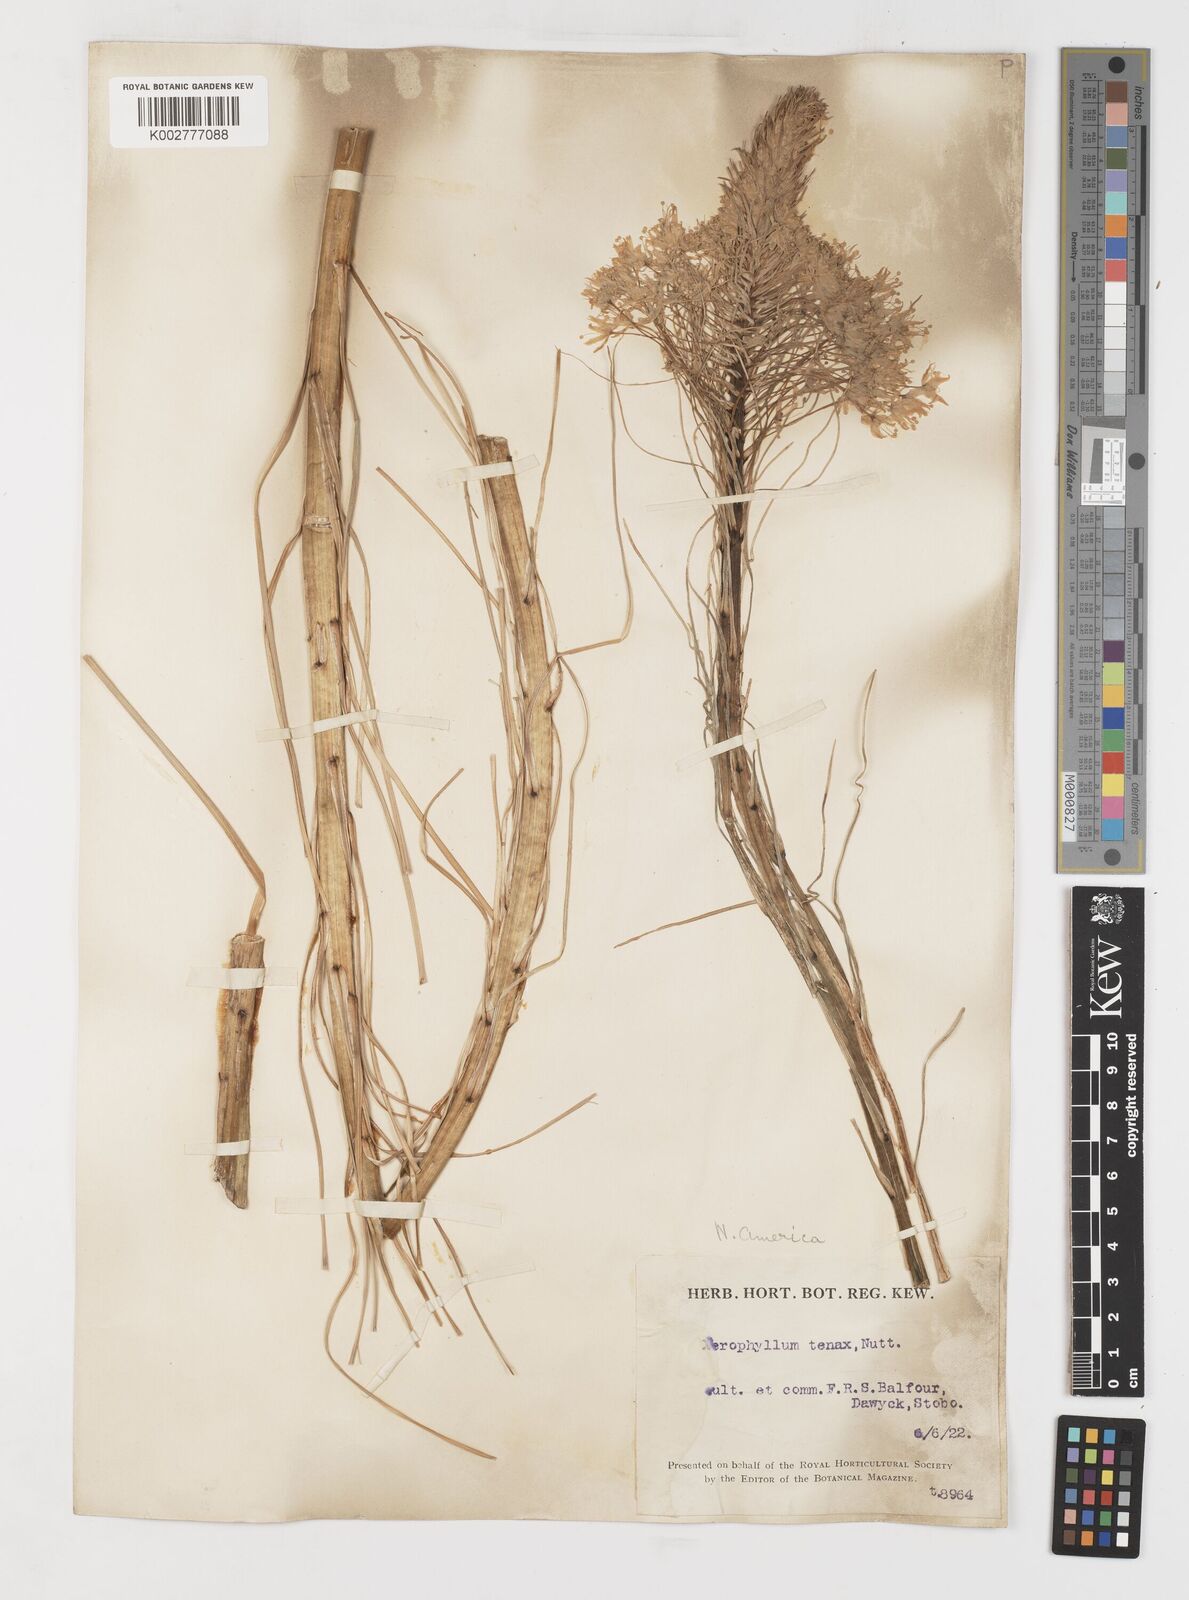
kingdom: Plantae
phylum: Tracheophyta
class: Liliopsida
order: Liliales
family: Melanthiaceae
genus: Xerophyllum
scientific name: Xerophyllum tenax
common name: Bear-grass
